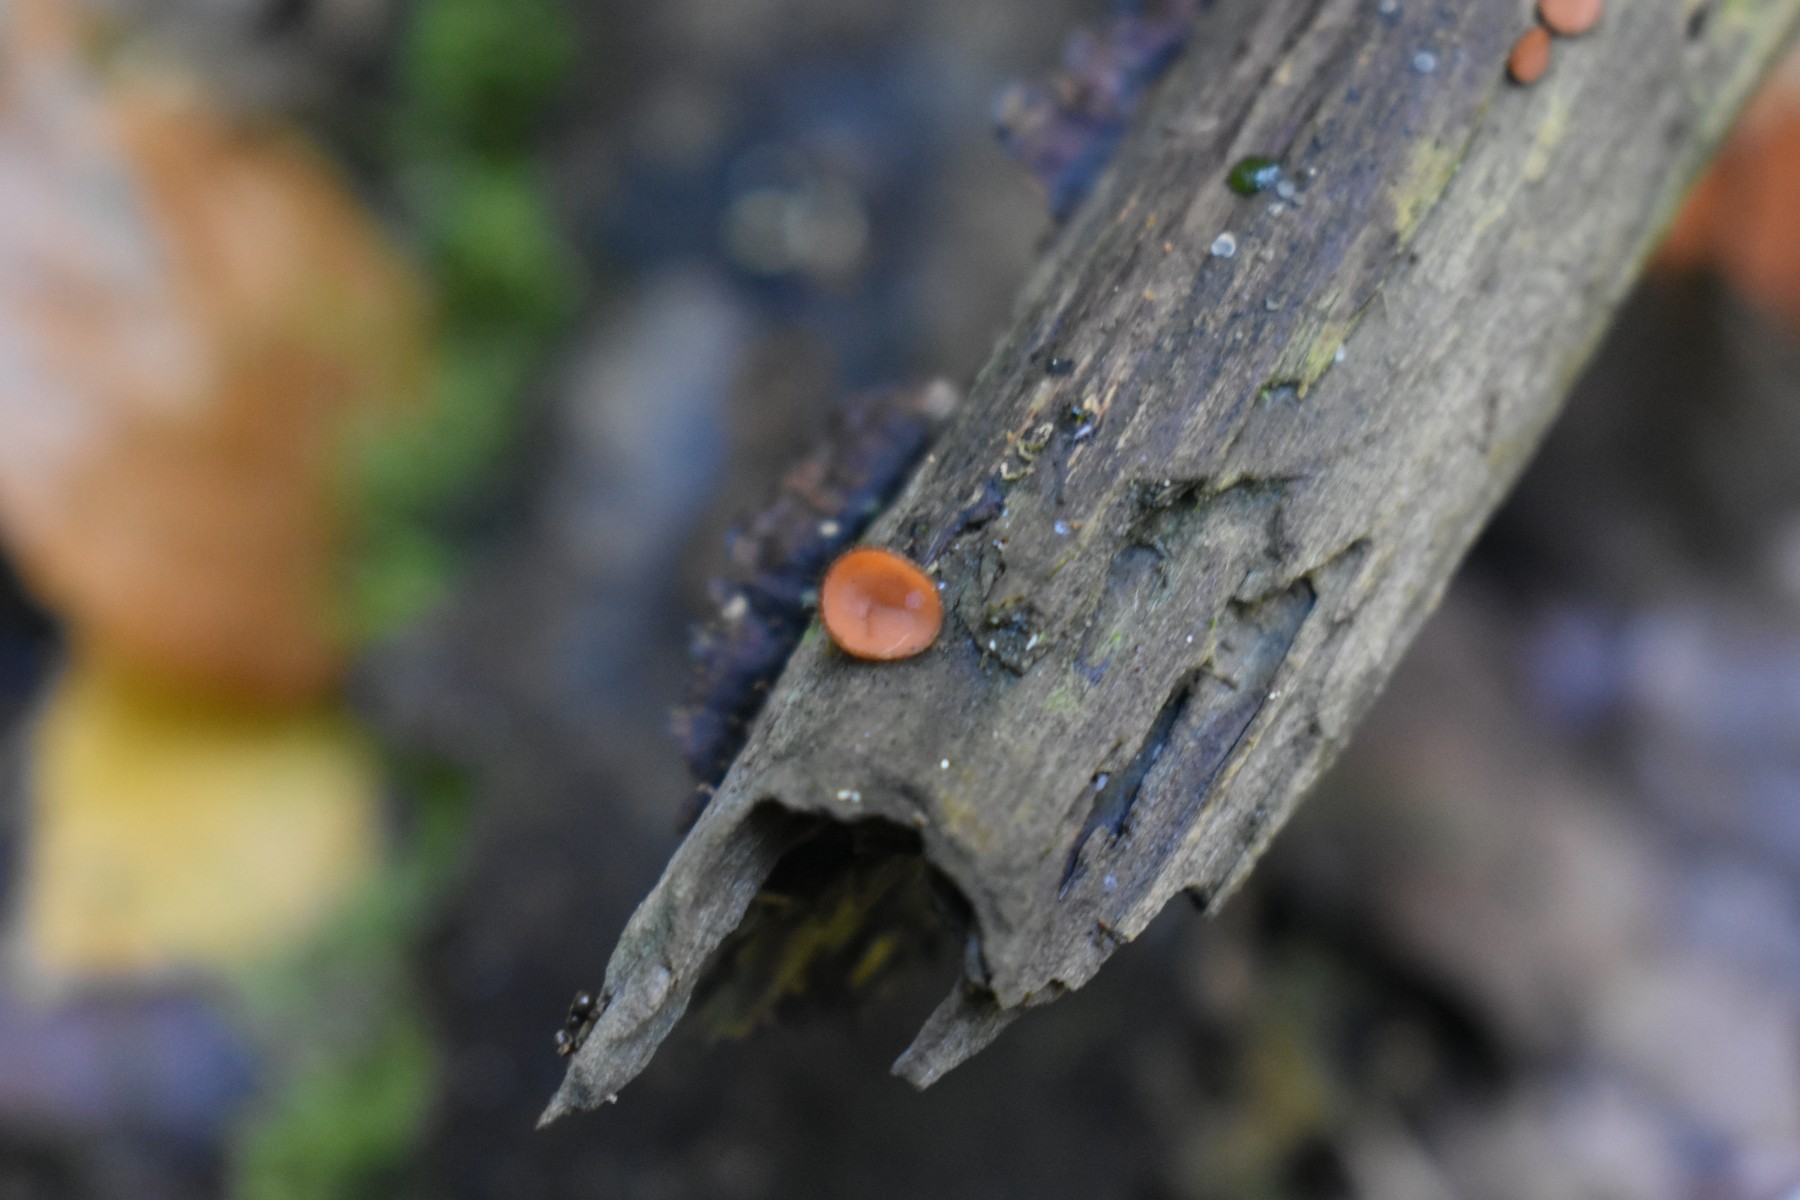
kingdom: Fungi
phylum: Ascomycota
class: Pezizomycetes
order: Pezizales
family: Pyronemataceae
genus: Scutellinia
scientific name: Scutellinia scutellata
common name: frynset skjoldbæger
